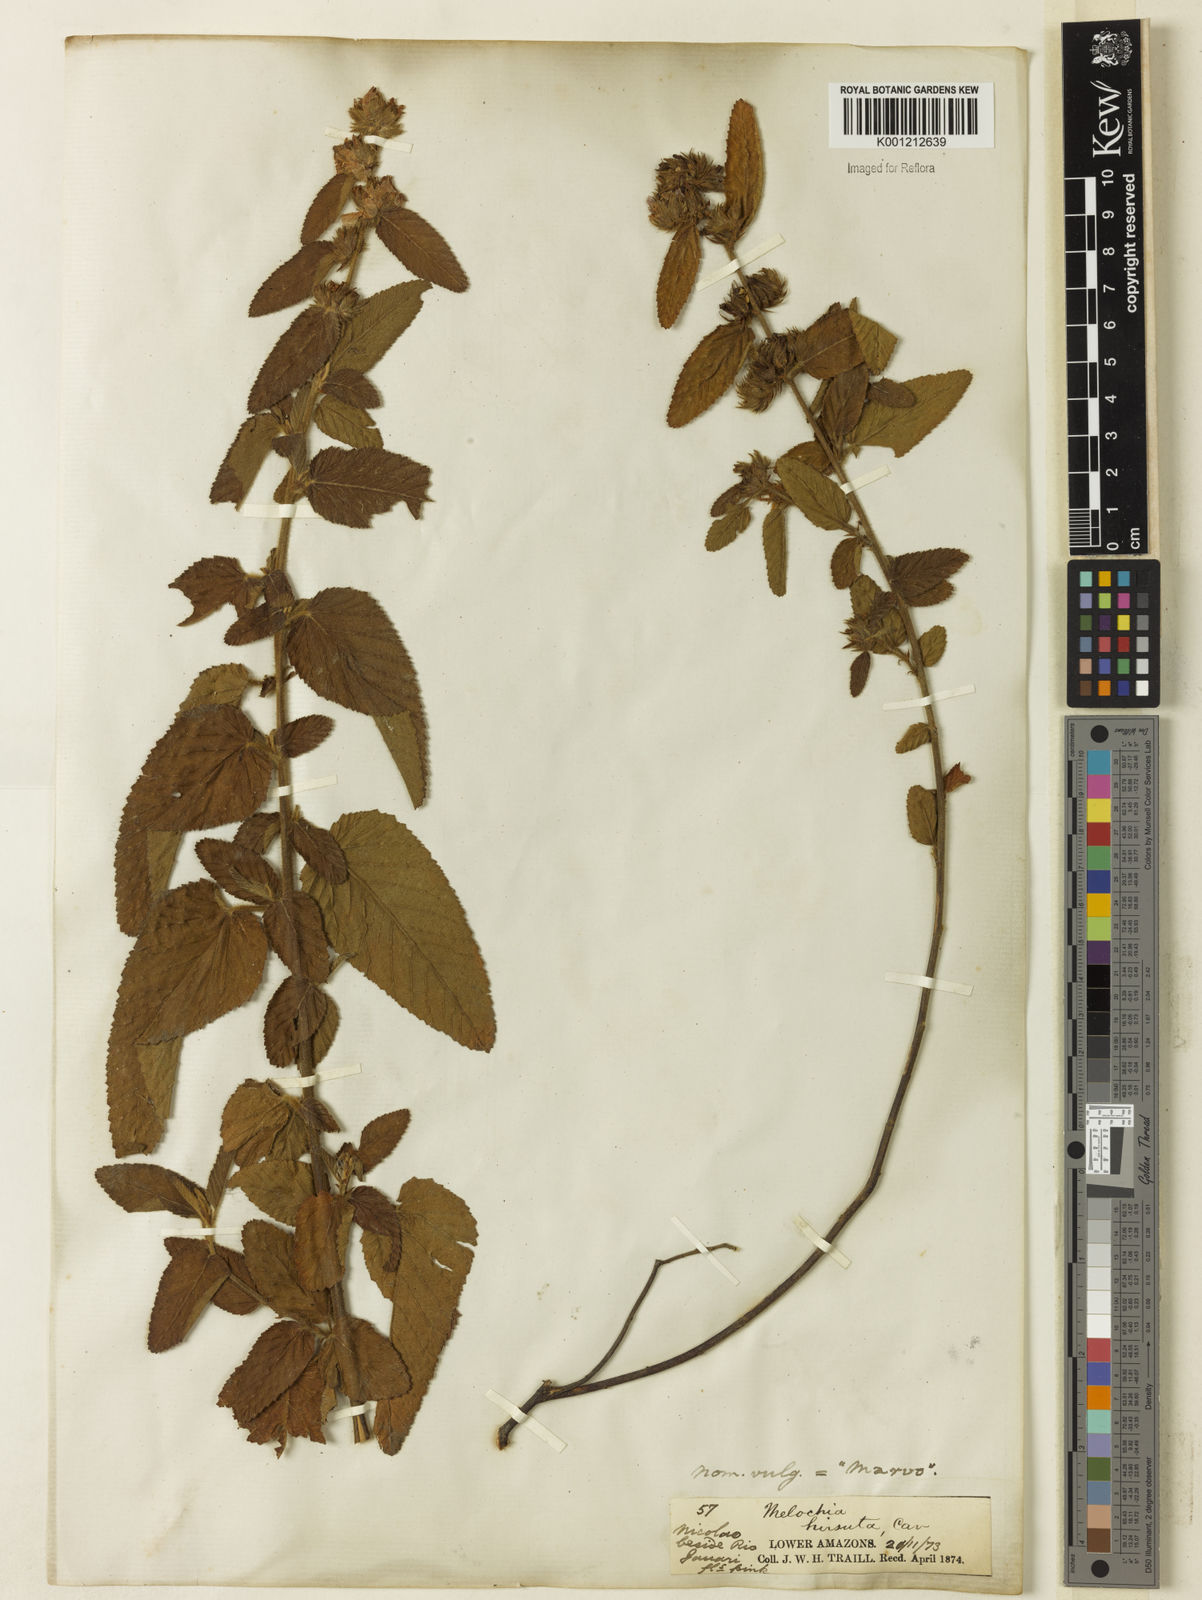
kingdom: Plantae
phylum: Tracheophyta
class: Magnoliopsida
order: Malvales
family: Malvaceae
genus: Melochia
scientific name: Melochia spicata
